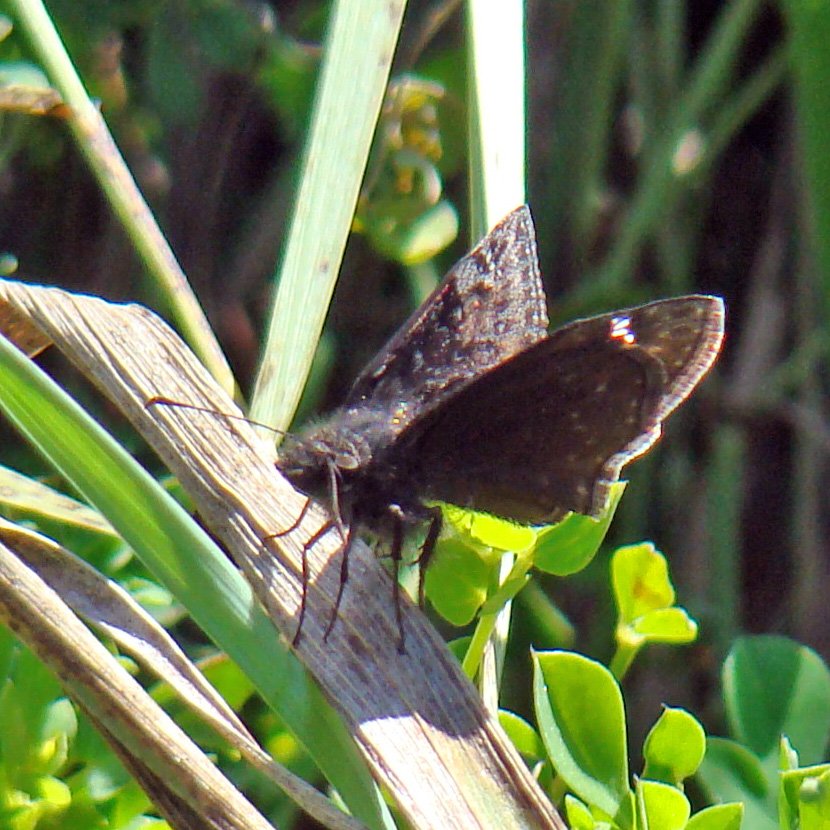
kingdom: Animalia
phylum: Arthropoda
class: Insecta
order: Lepidoptera
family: Hesperiidae
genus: Gesta
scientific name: Gesta
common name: Wild Indigo Duskywing
